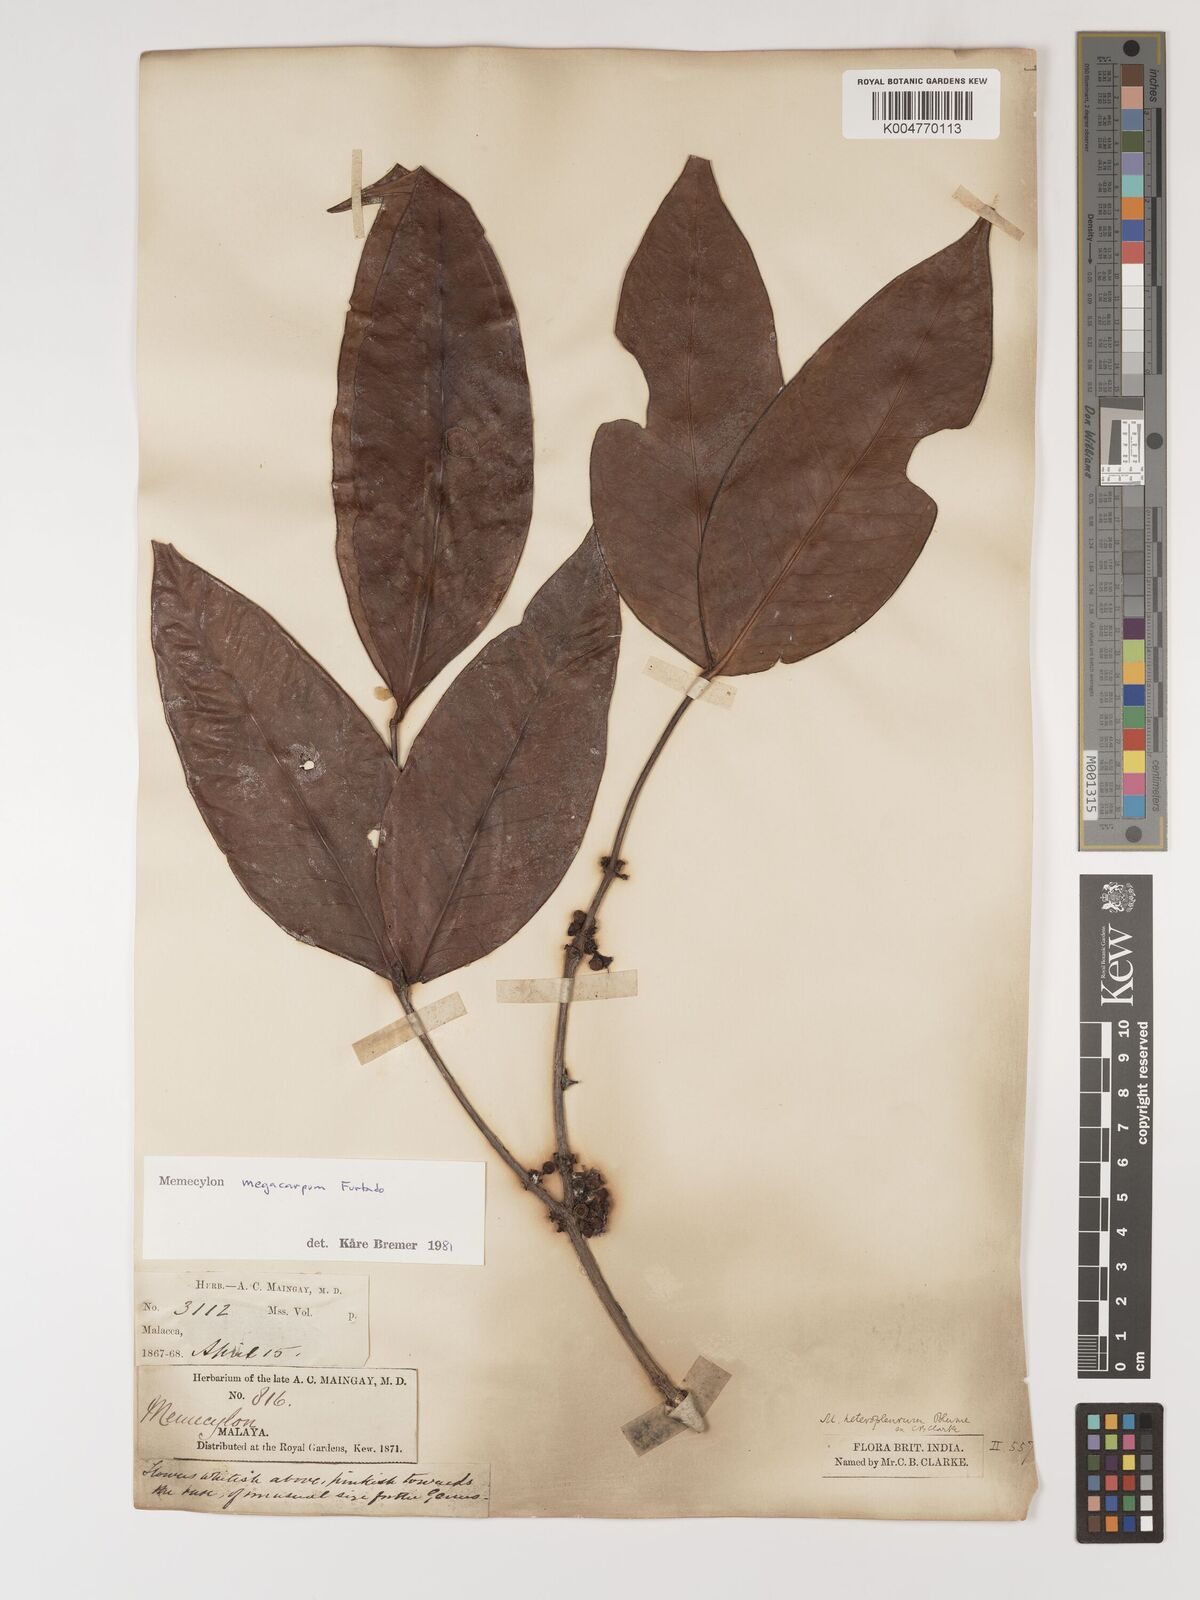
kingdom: Plantae
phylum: Tracheophyta
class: Magnoliopsida
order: Myrtales
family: Melastomataceae
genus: Memecylon
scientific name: Memecylon megacarpum
